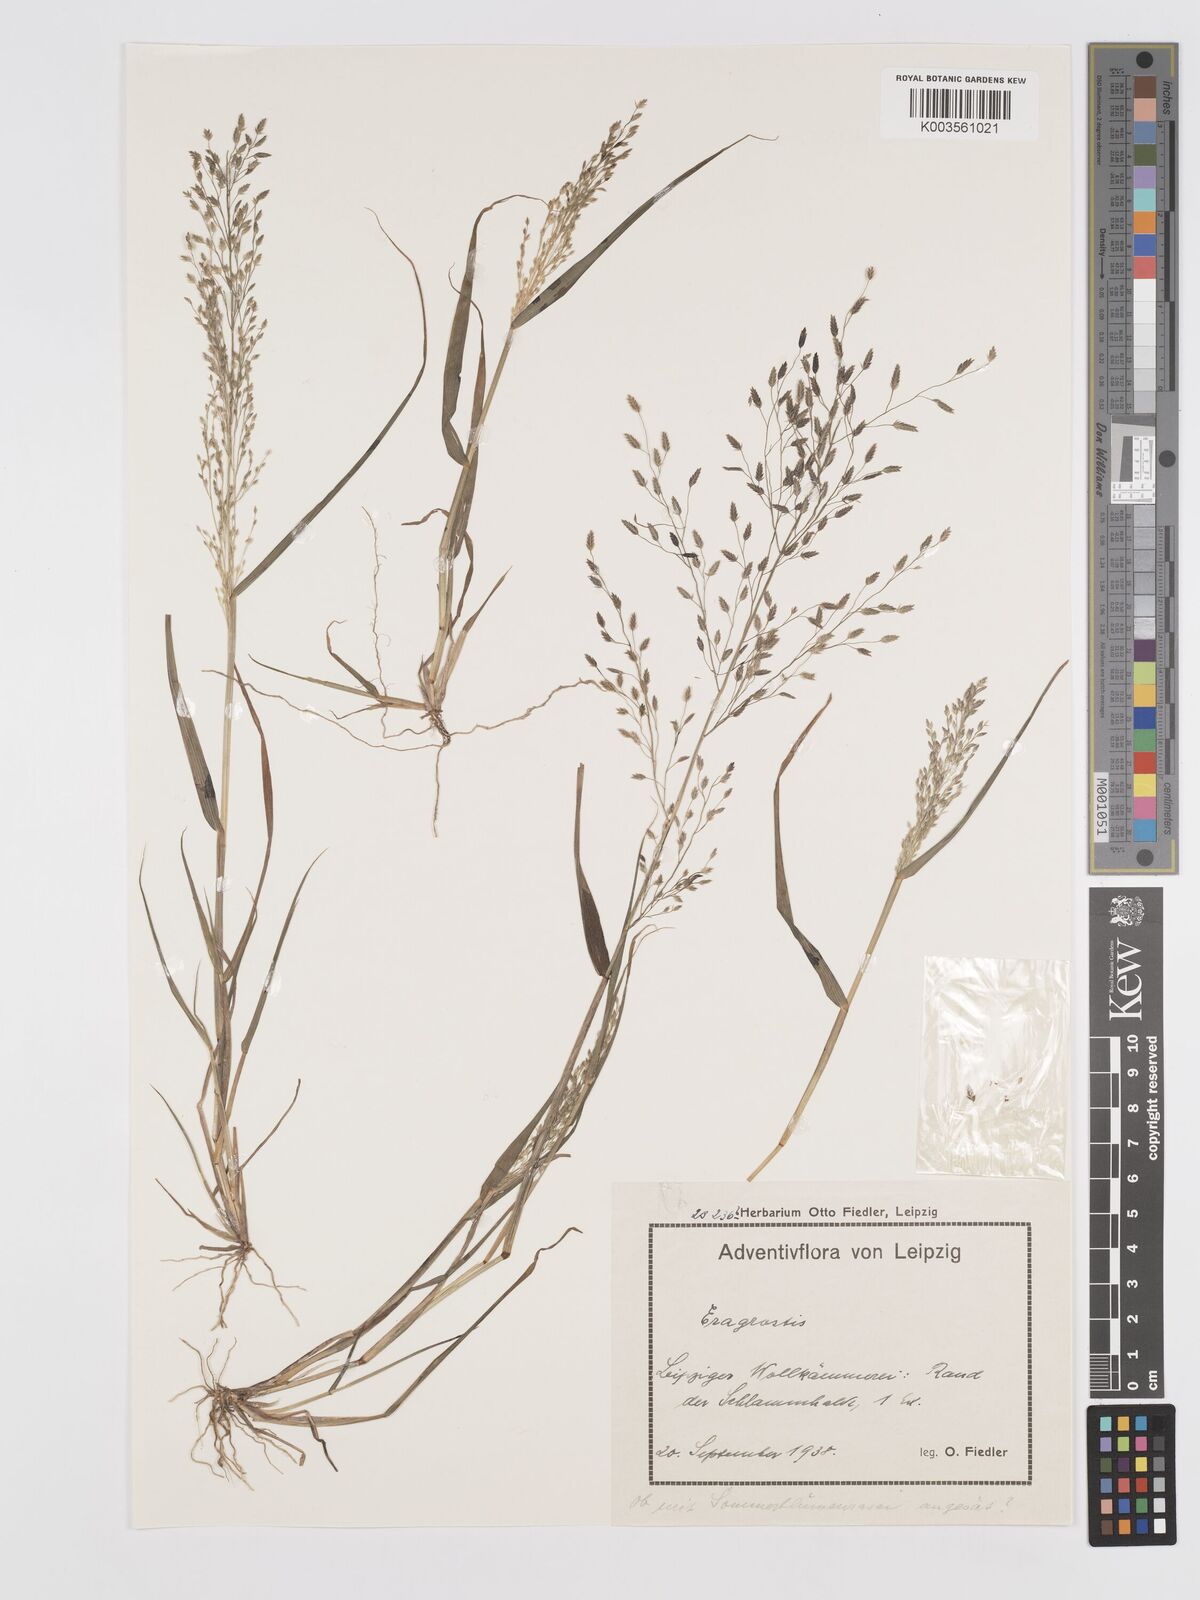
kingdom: Plantae
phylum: Tracheophyta
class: Liliopsida
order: Poales
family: Poaceae
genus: Eragrostis
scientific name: Eragrostis
